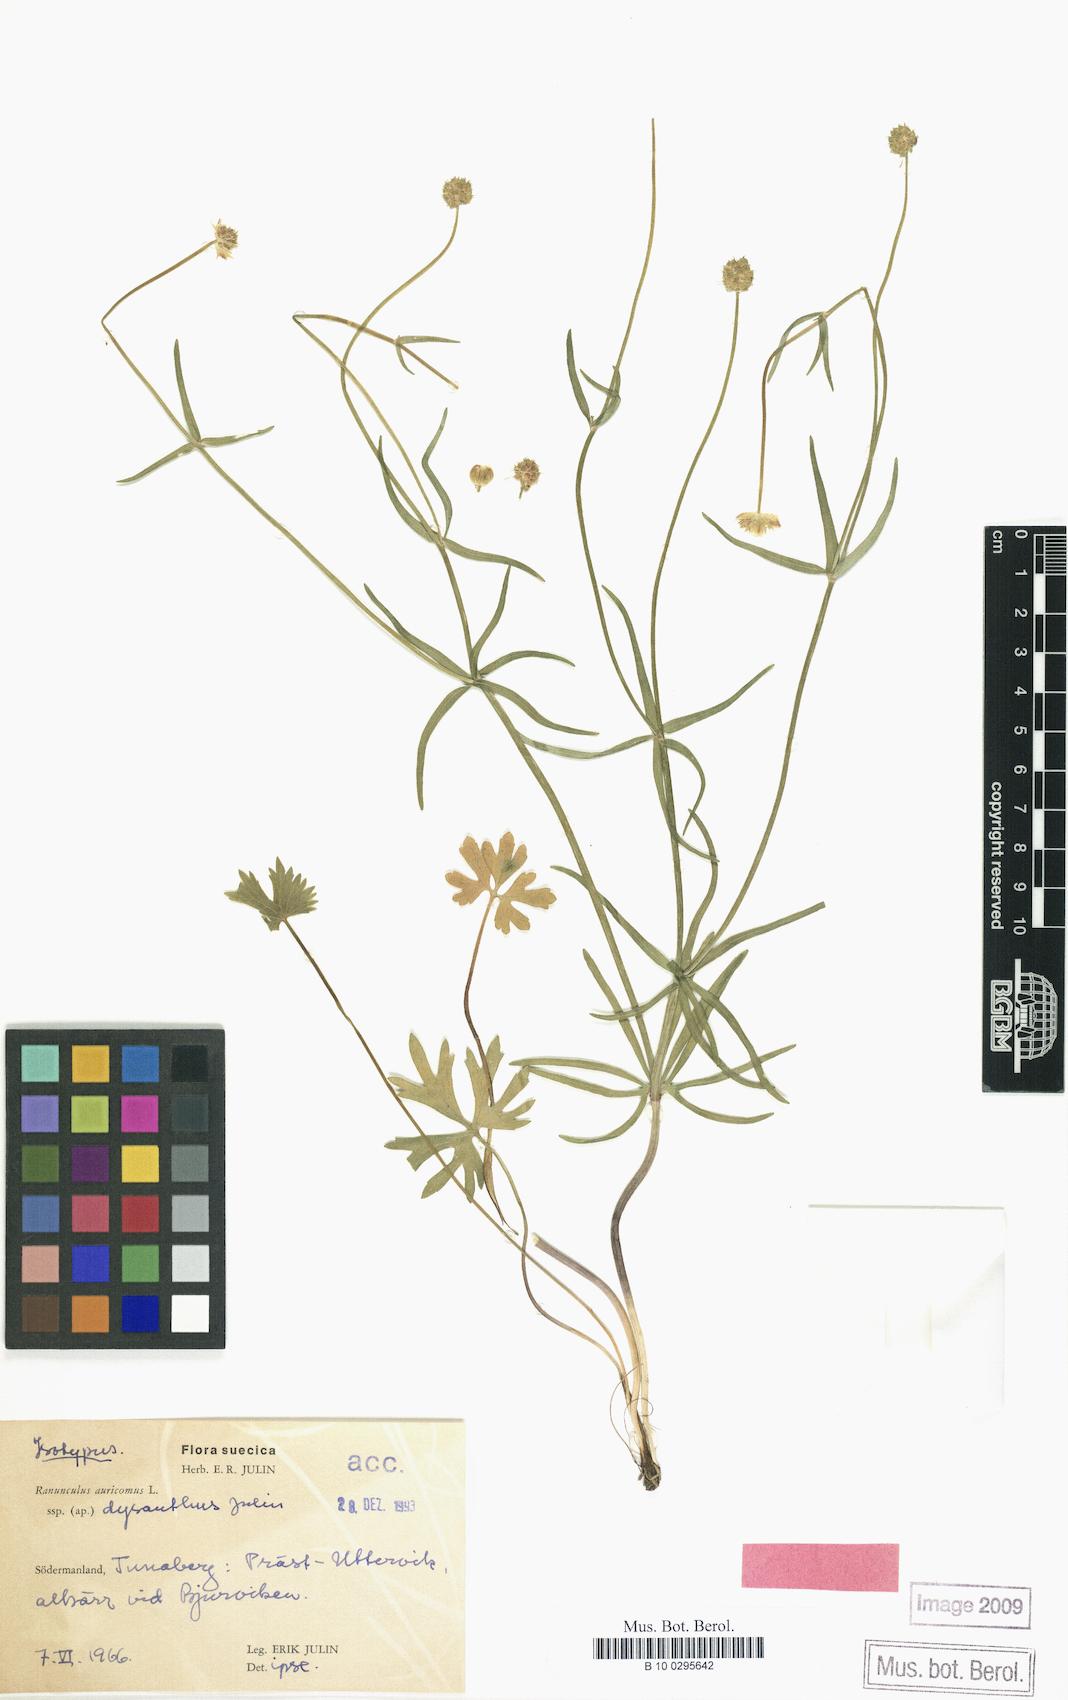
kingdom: Plantae
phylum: Tracheophyta
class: Magnoliopsida
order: Ranunculales
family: Ranunculaceae
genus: Ranunculus
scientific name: Ranunculus dysanthus
